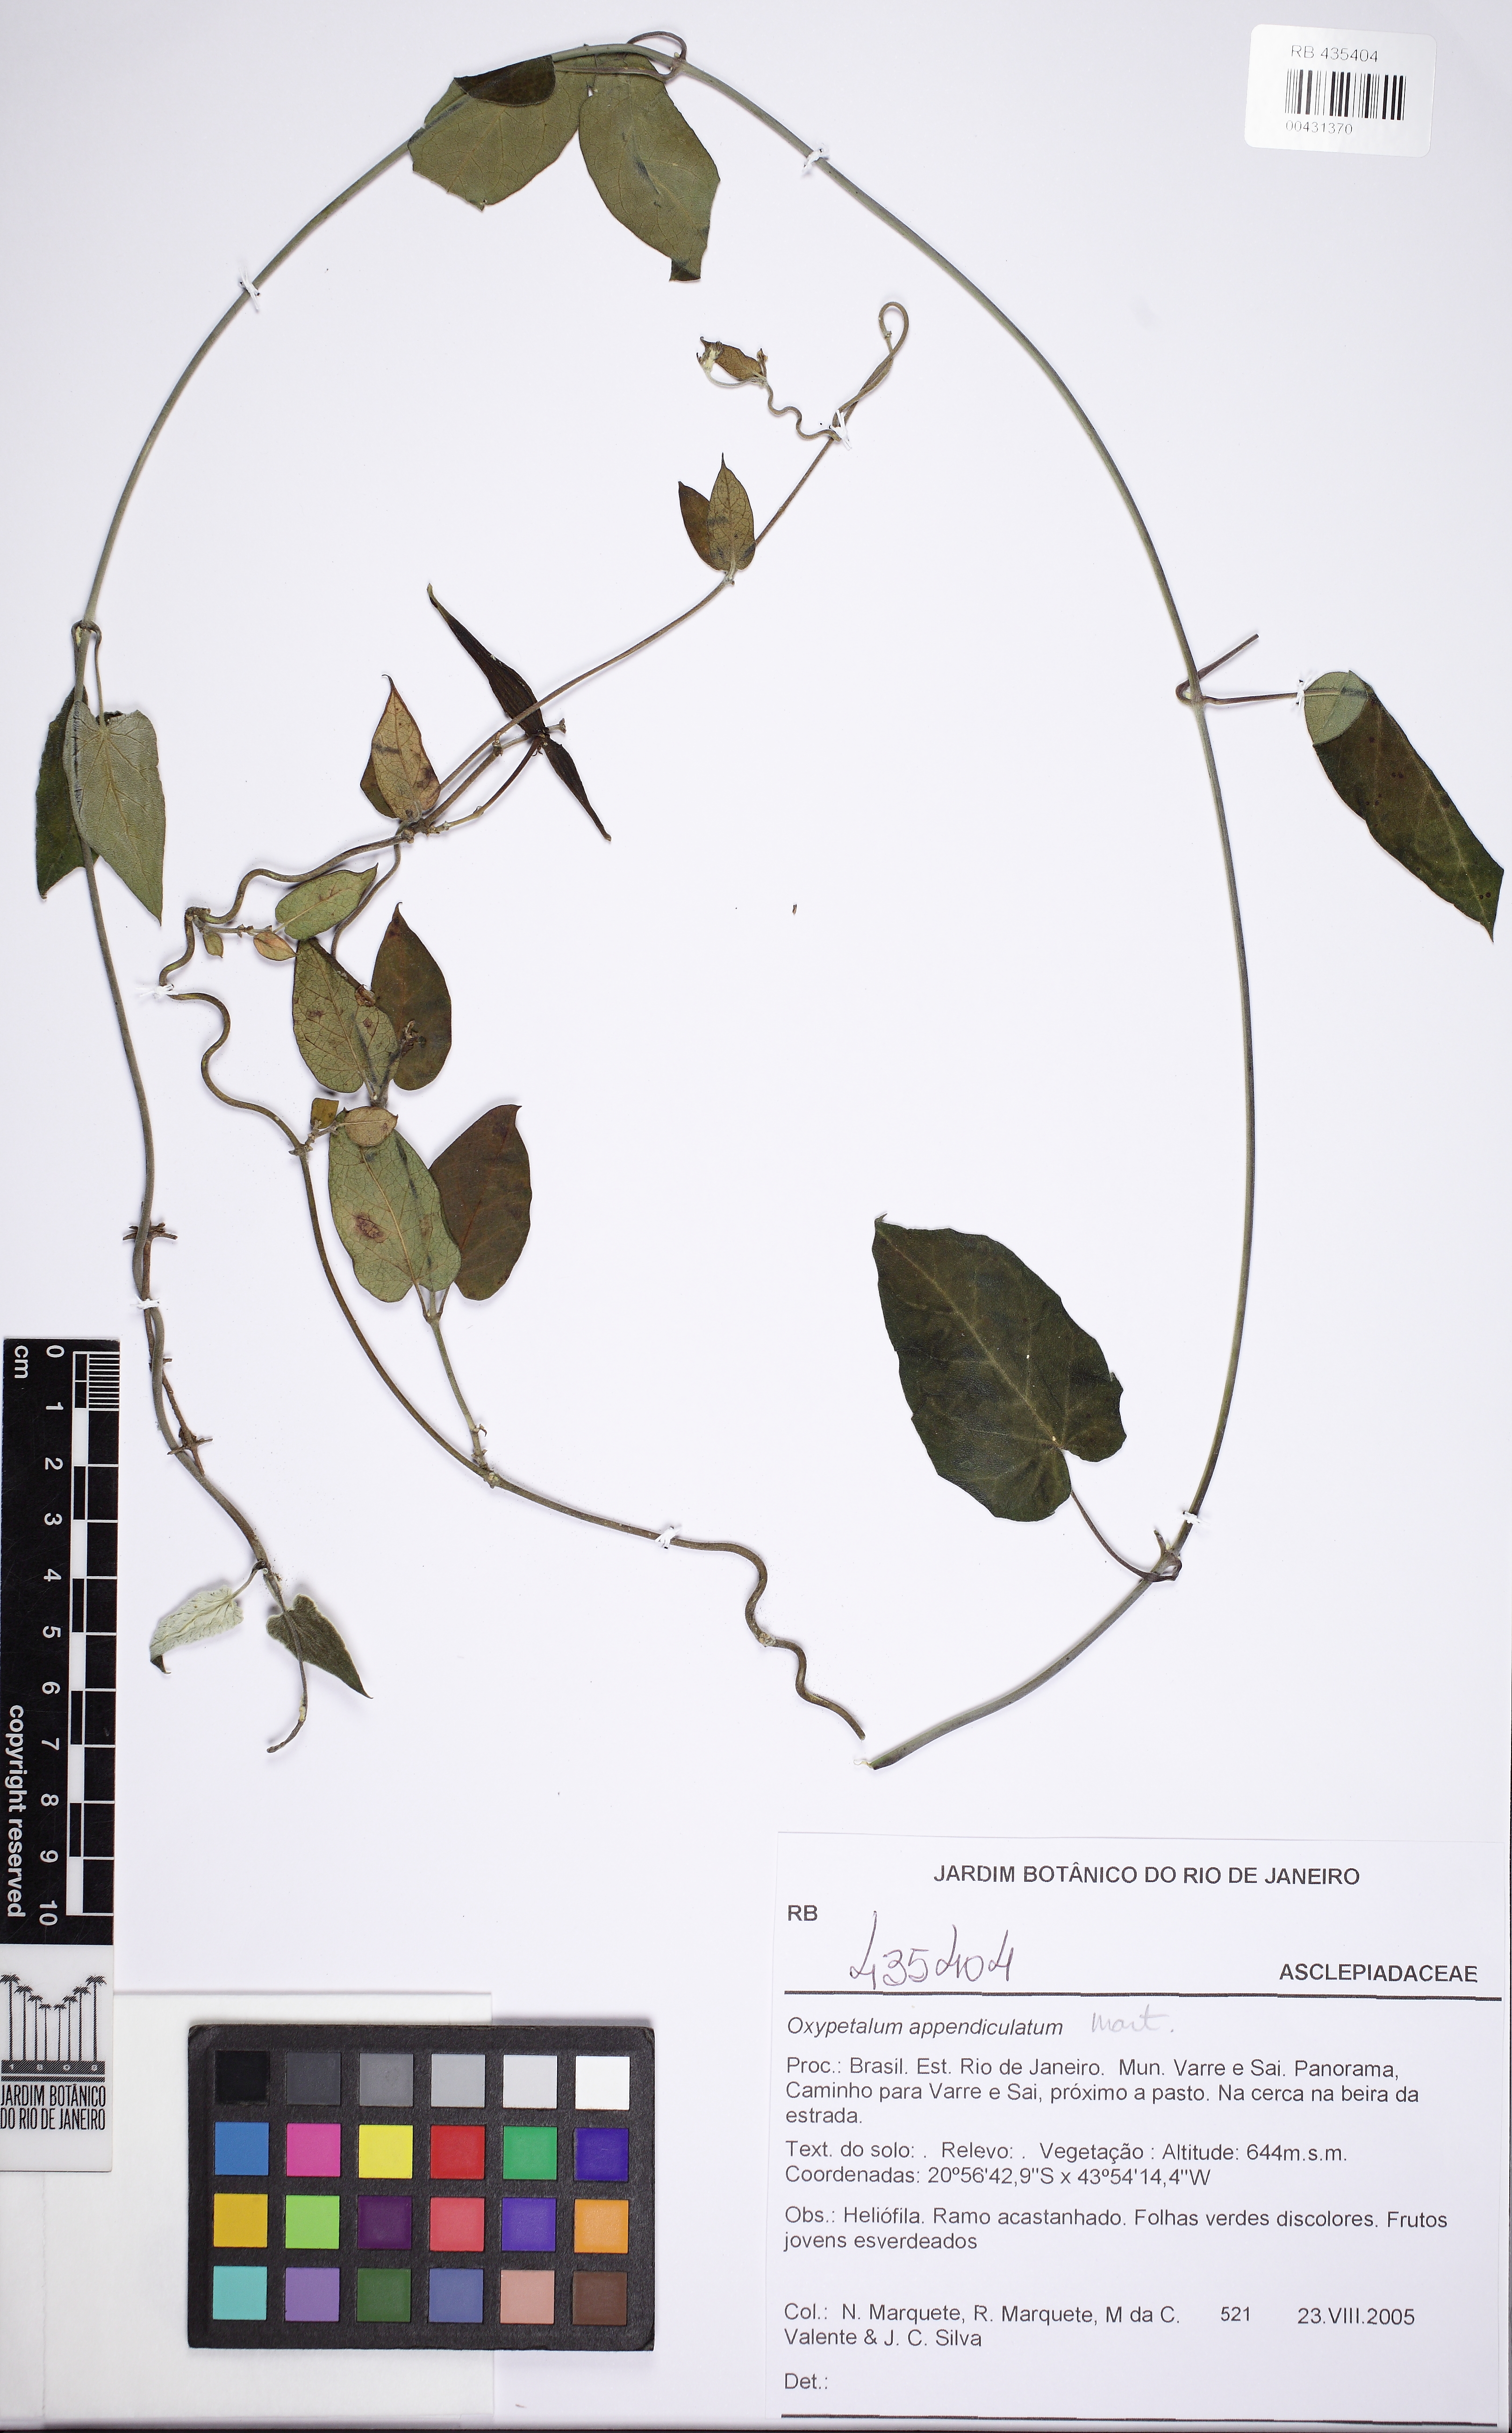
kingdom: Plantae
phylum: Tracheophyta
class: Magnoliopsida
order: Gentianales
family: Apocynaceae
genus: Oxypetalum
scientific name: Oxypetalum appendiculatum
